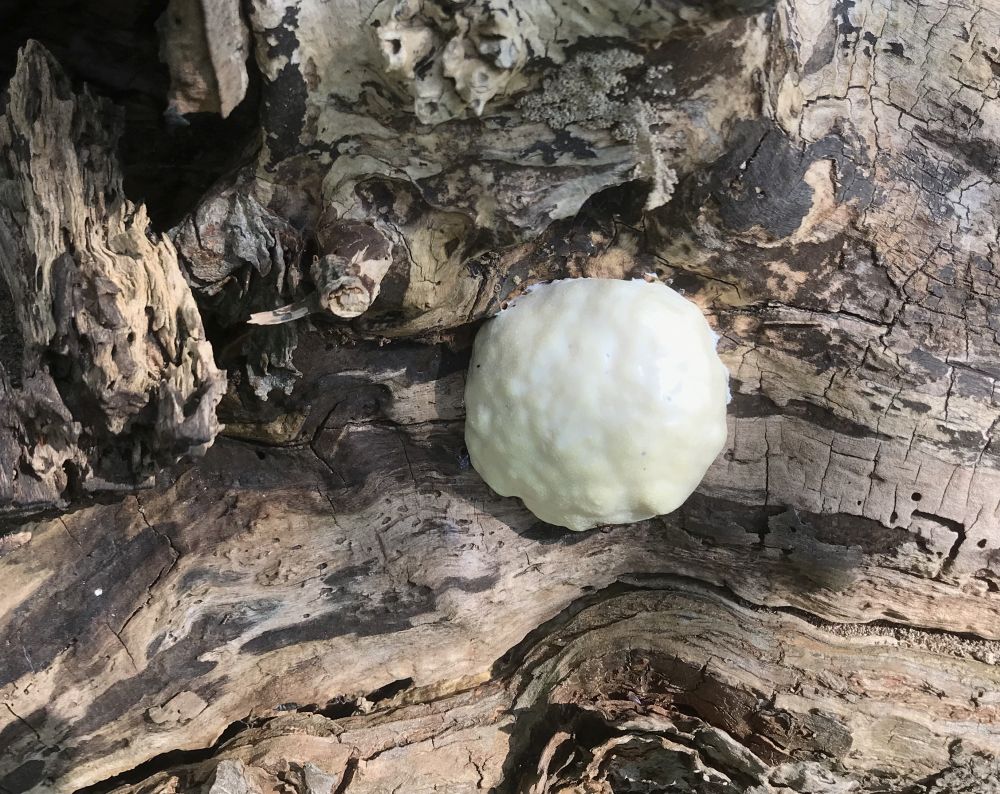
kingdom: Protozoa
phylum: Mycetozoa
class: Myxomycetes
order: Cribrariales
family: Tubiferaceae
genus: Reticularia
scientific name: Reticularia lycoperdon
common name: skinnende støvpude
